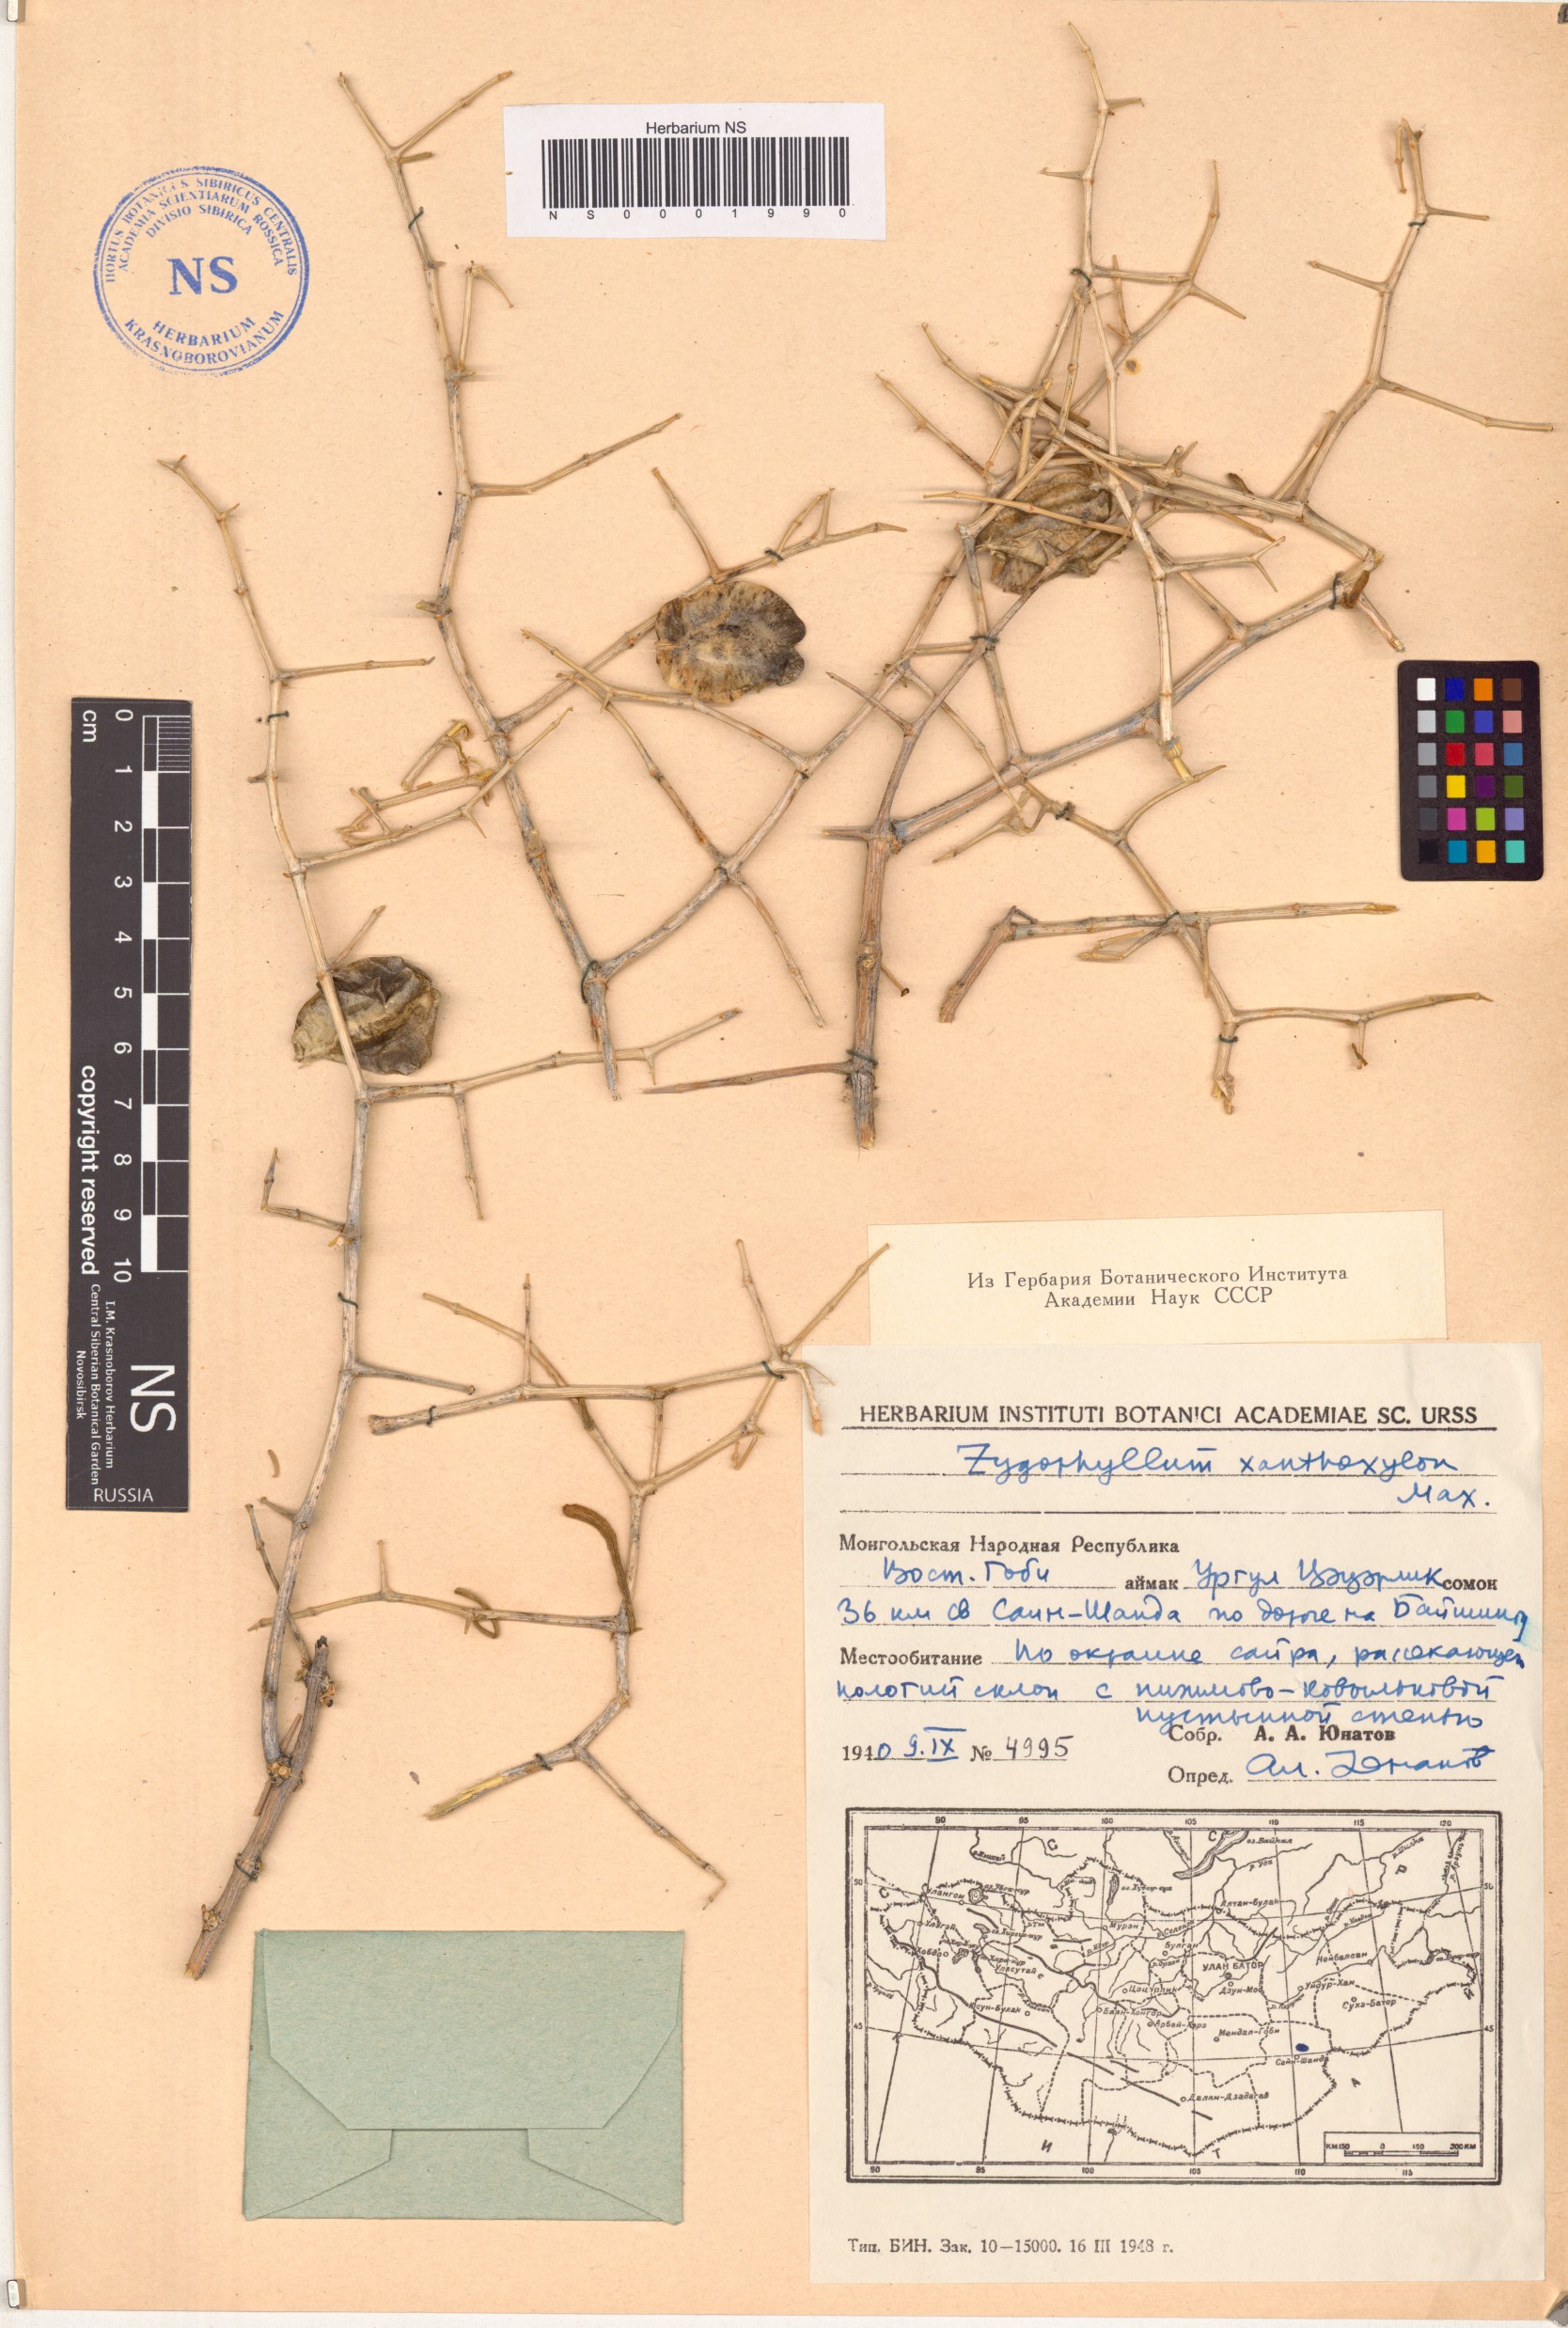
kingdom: Plantae
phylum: Tracheophyta
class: Magnoliopsida
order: Zygophyllales
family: Zygophyllaceae
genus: Zygophyllum
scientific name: Zygophyllum xanthoxylum
